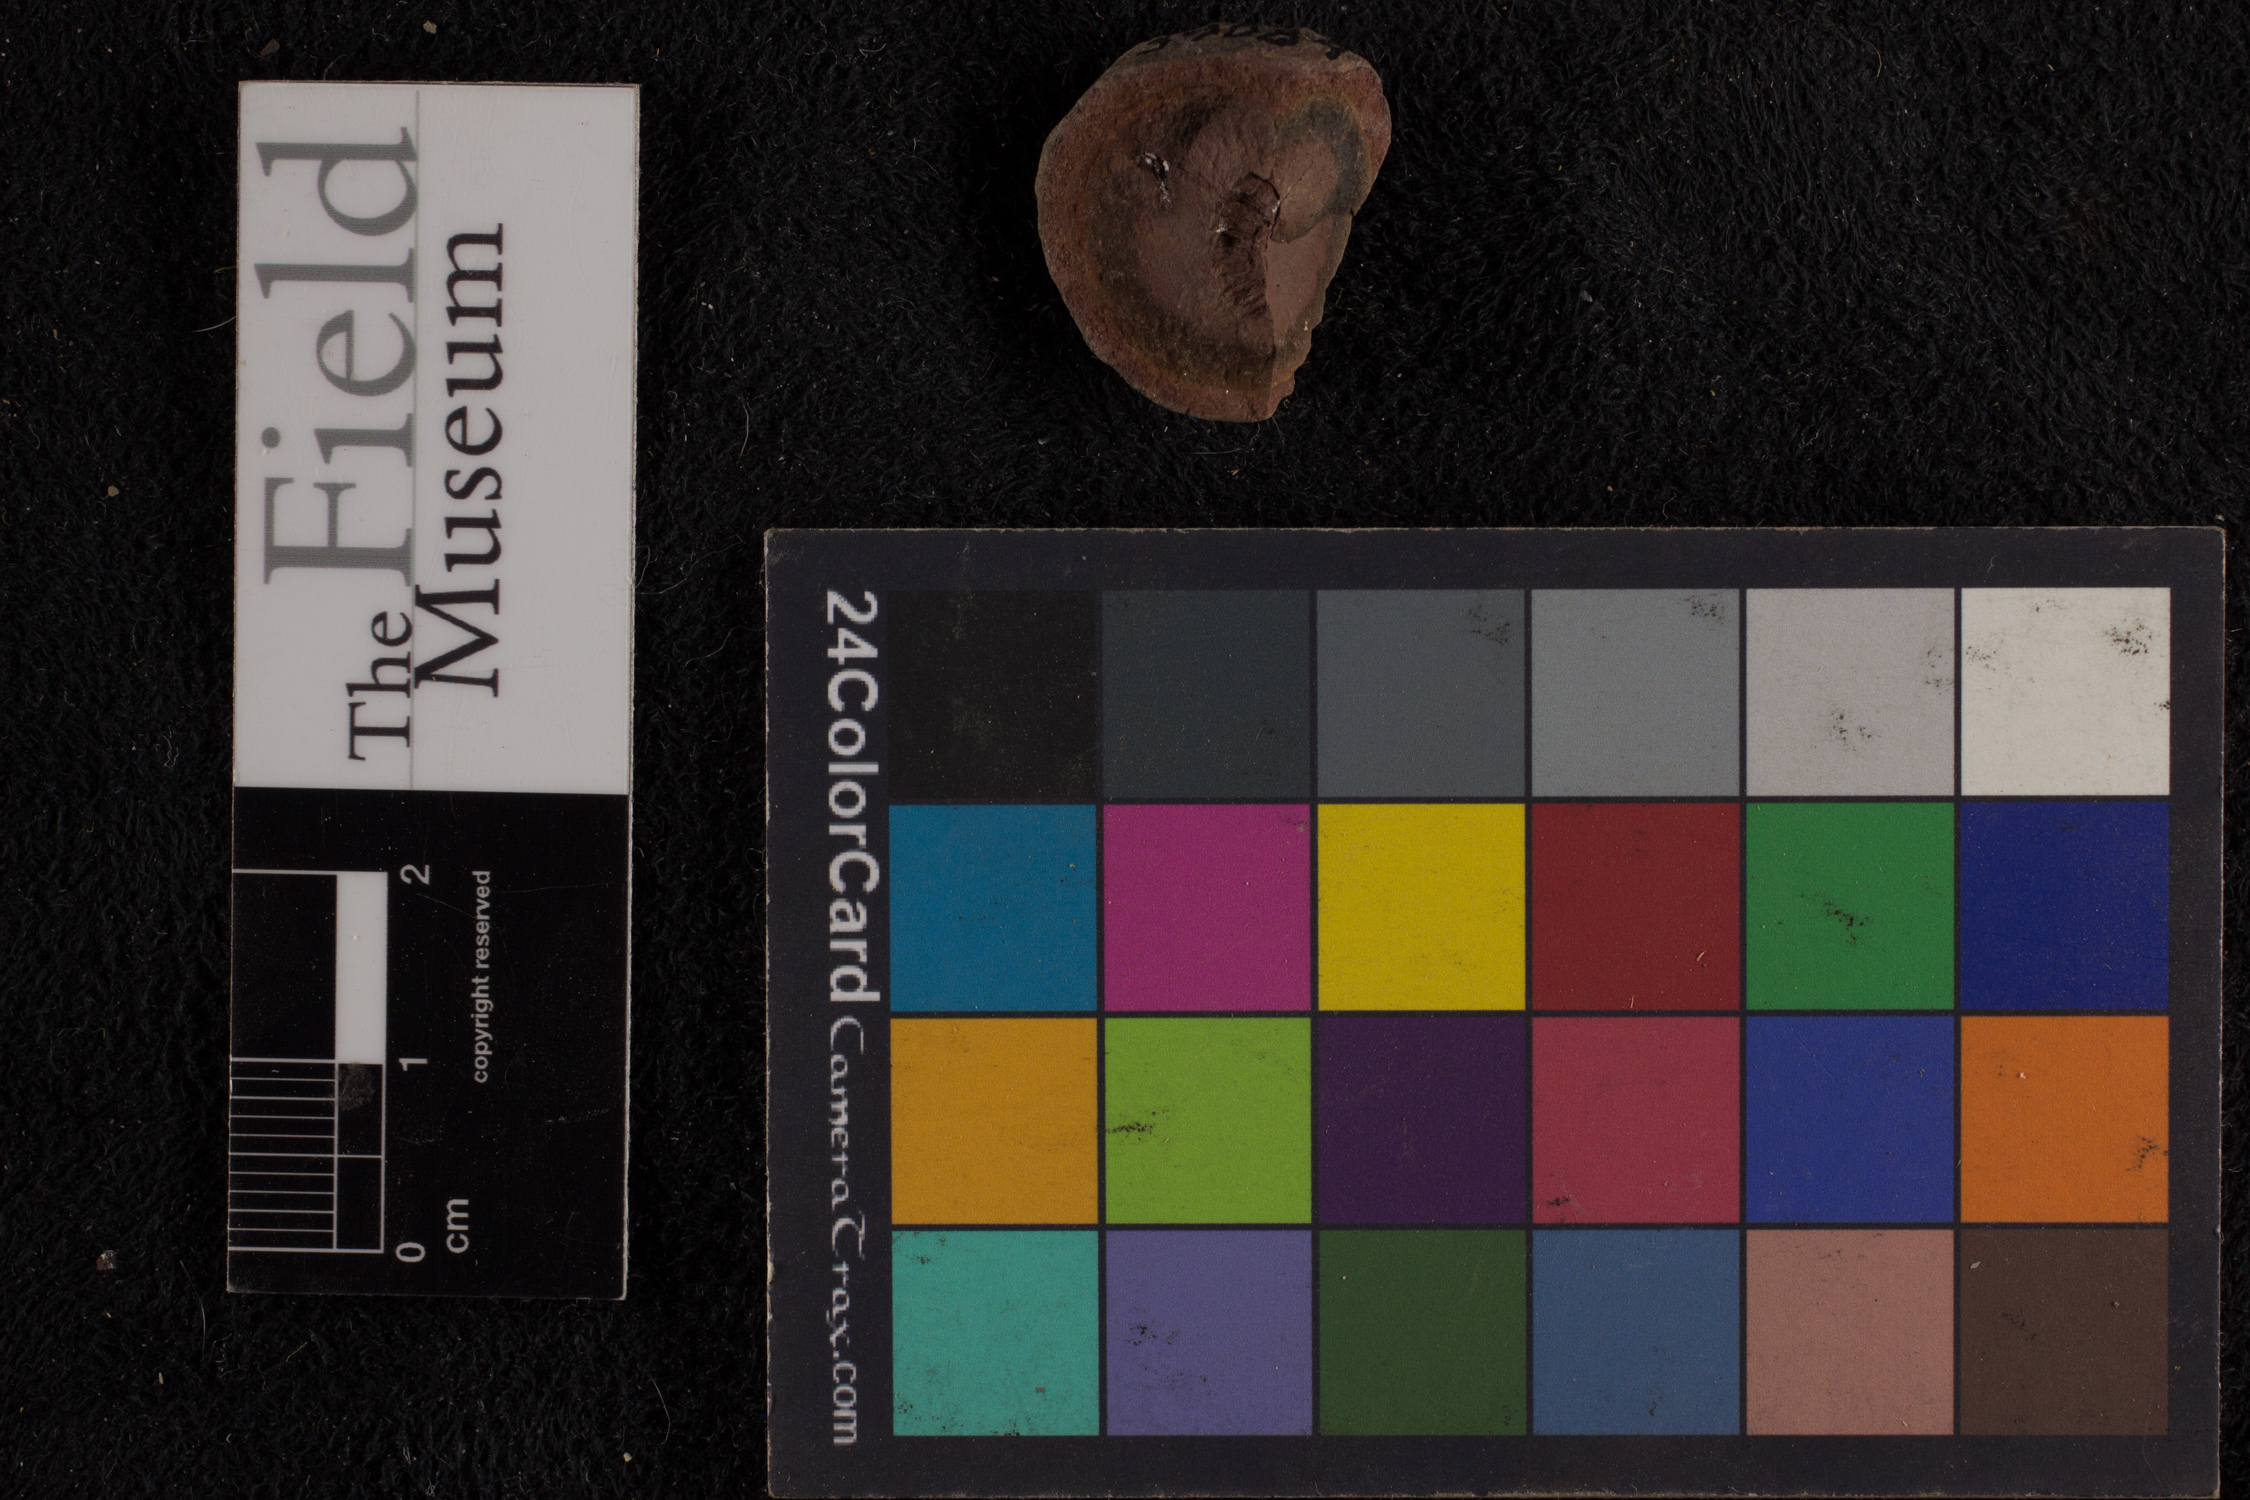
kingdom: Plantae
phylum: Tracheophyta
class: Polypodiopsida
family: Stauropteridaceae
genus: Crossotheca
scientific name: Crossotheca
